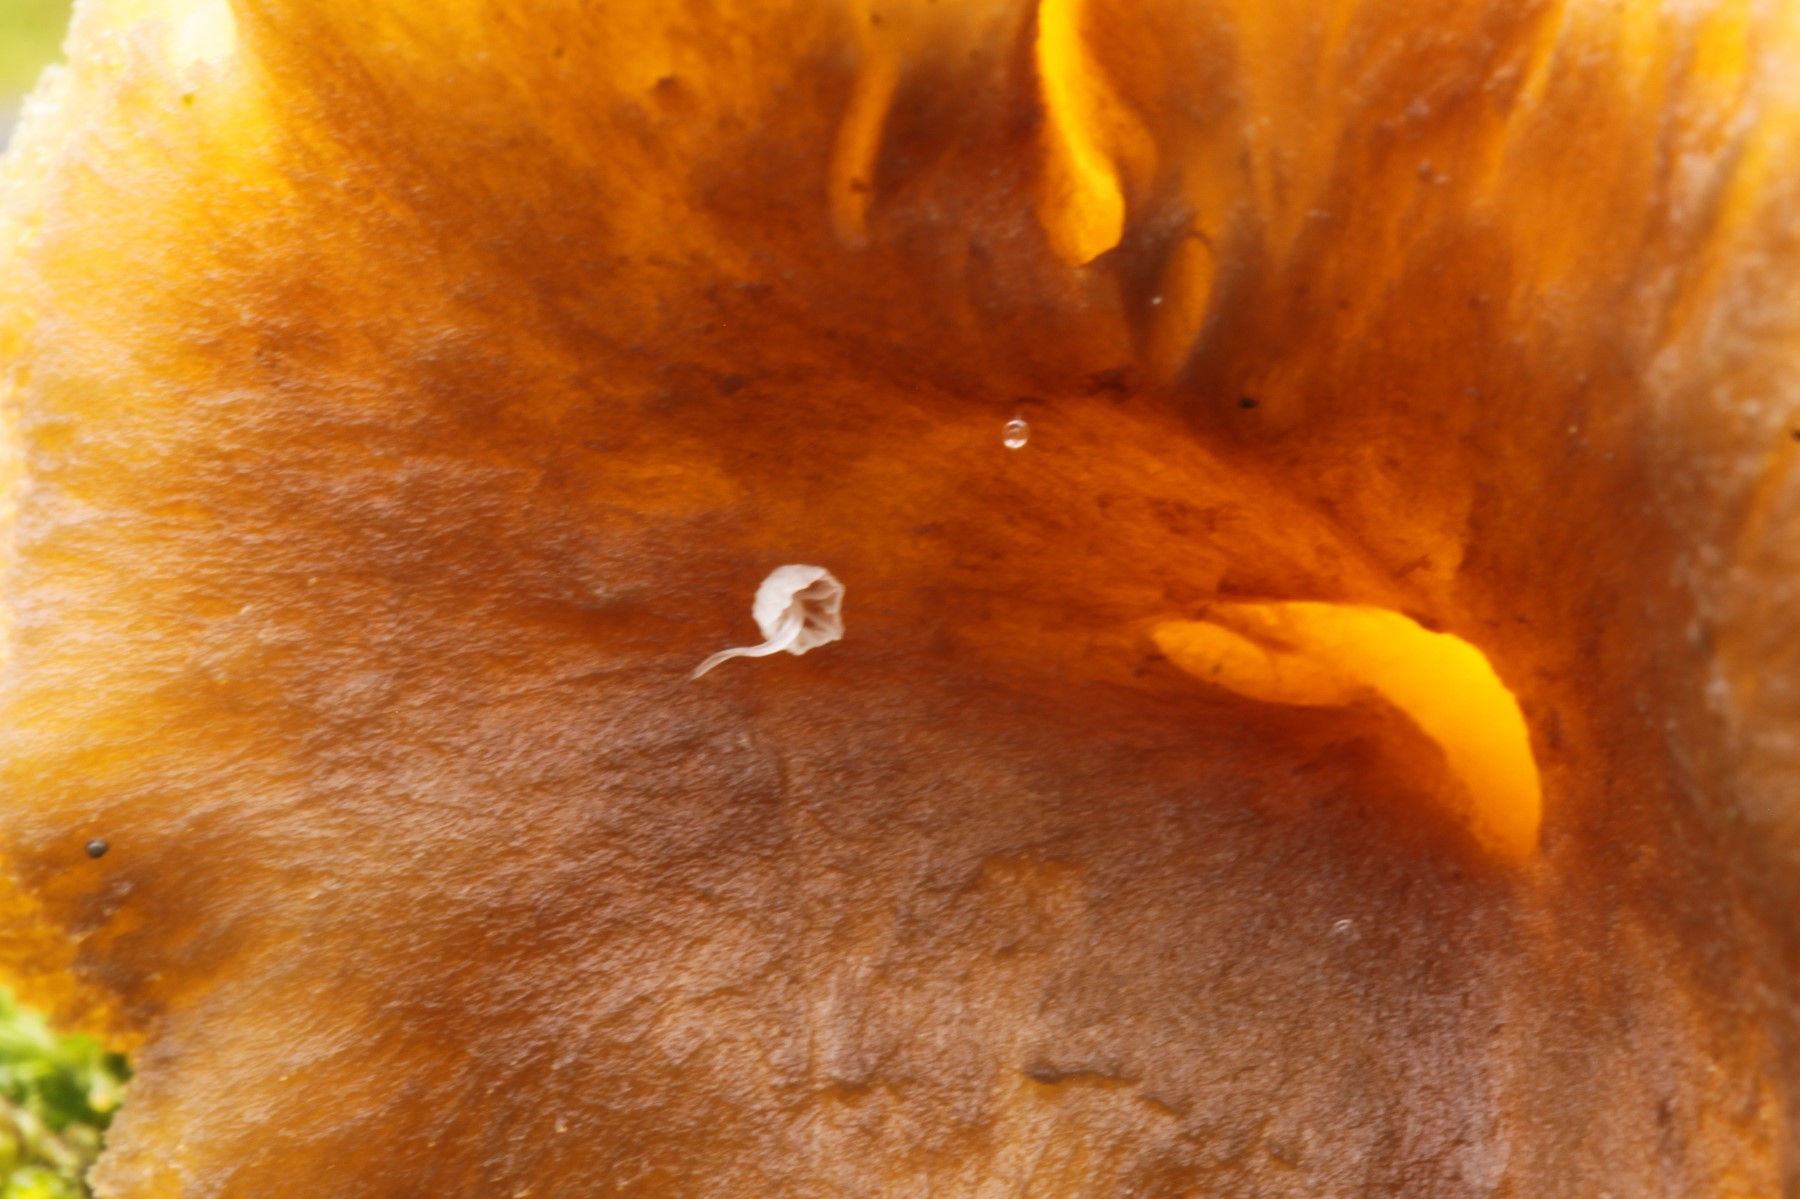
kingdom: Fungi
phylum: Basidiomycota
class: Agaricomycetes
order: Agaricales
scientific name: Agaricales
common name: champignonordenen
